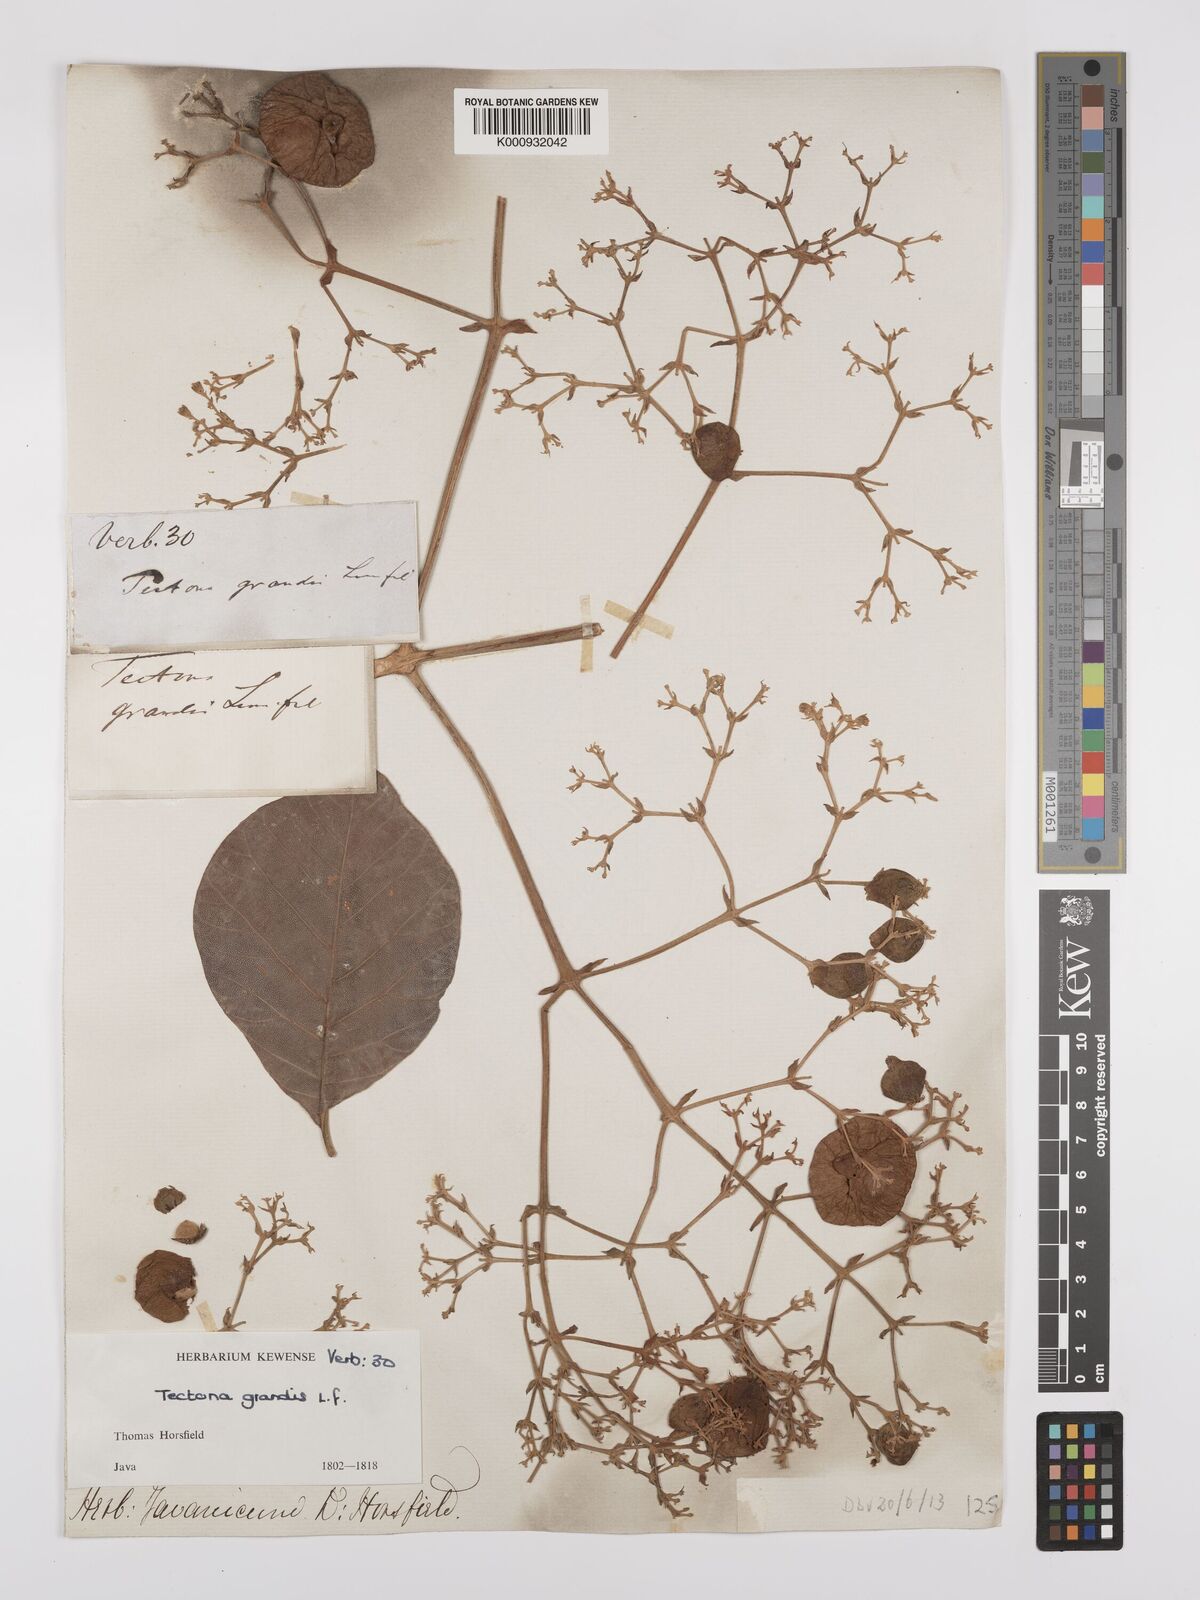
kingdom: Plantae
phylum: Tracheophyta
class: Magnoliopsida
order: Lamiales
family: Lamiaceae
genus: Tectona
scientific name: Tectona grandis
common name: Teak
